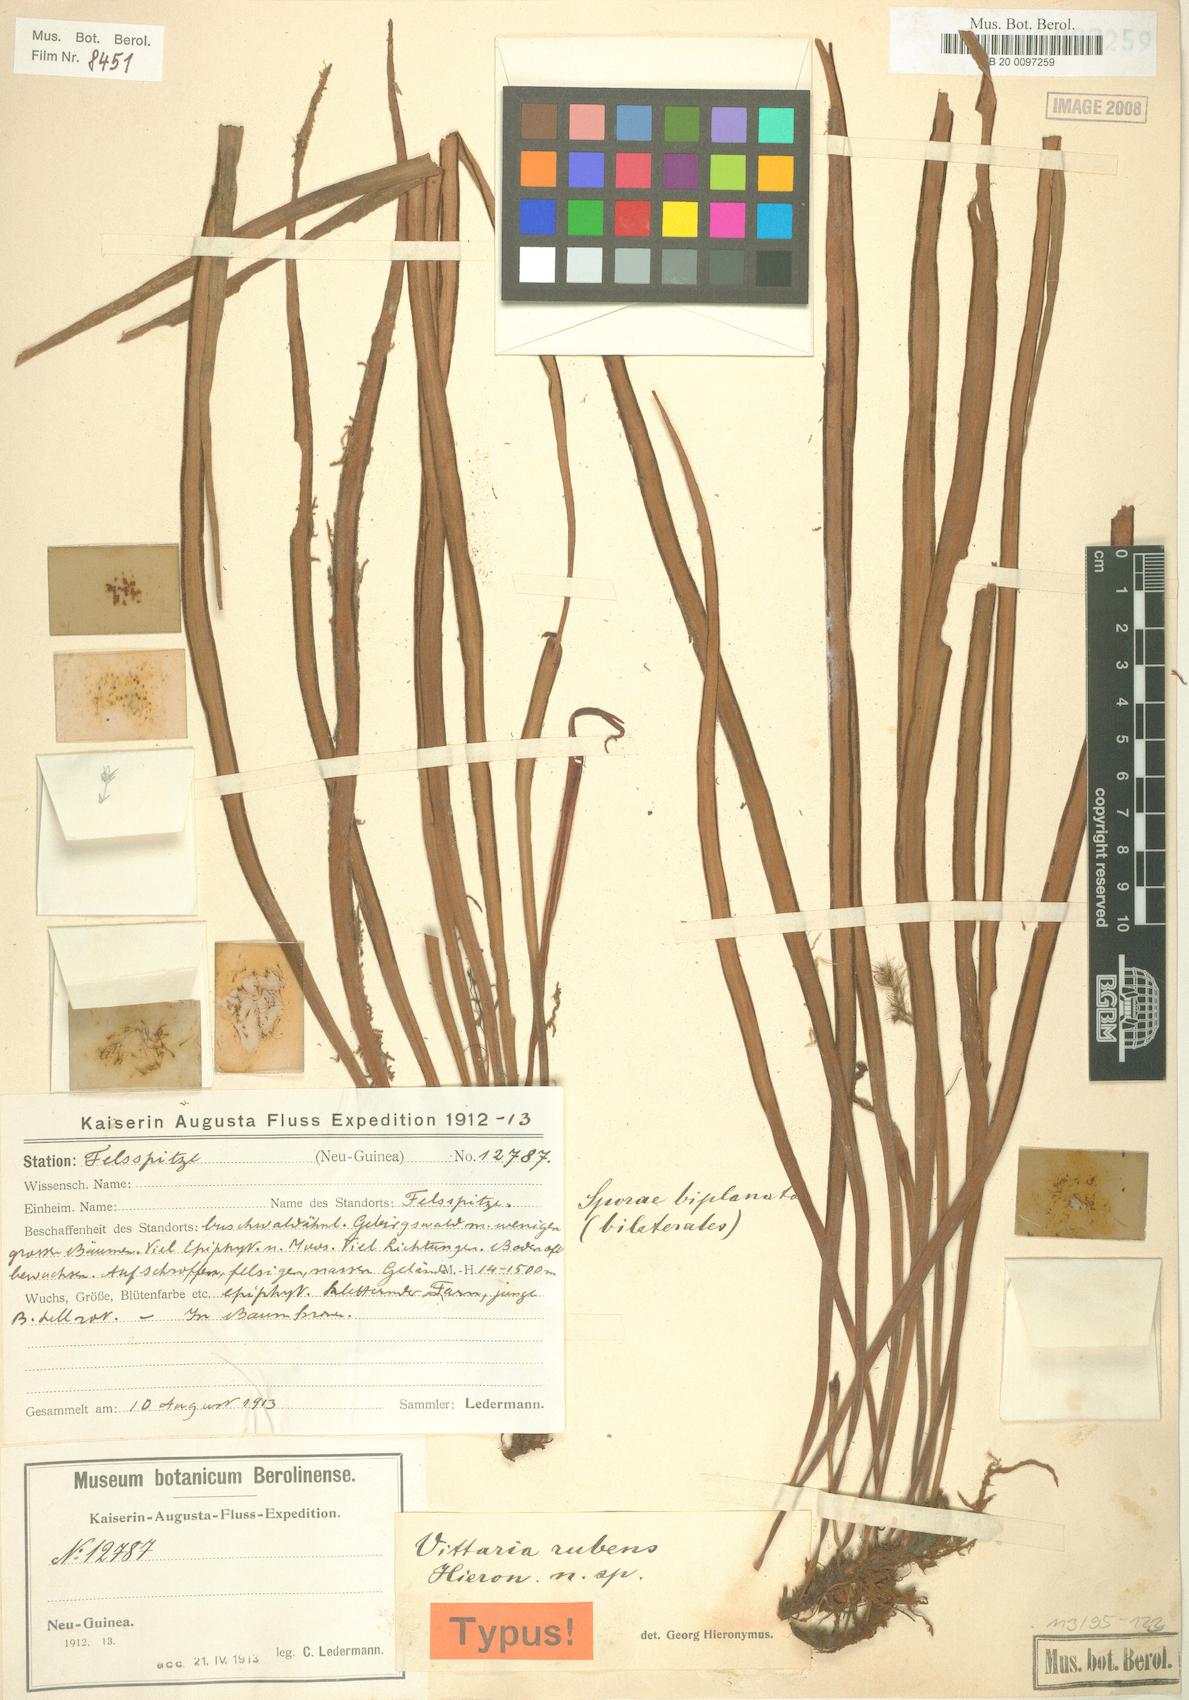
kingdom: Plantae
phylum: Tracheophyta
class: Polypodiopsida
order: Polypodiales
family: Pteridaceae
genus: Haplopteris
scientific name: Haplopteris elongata
